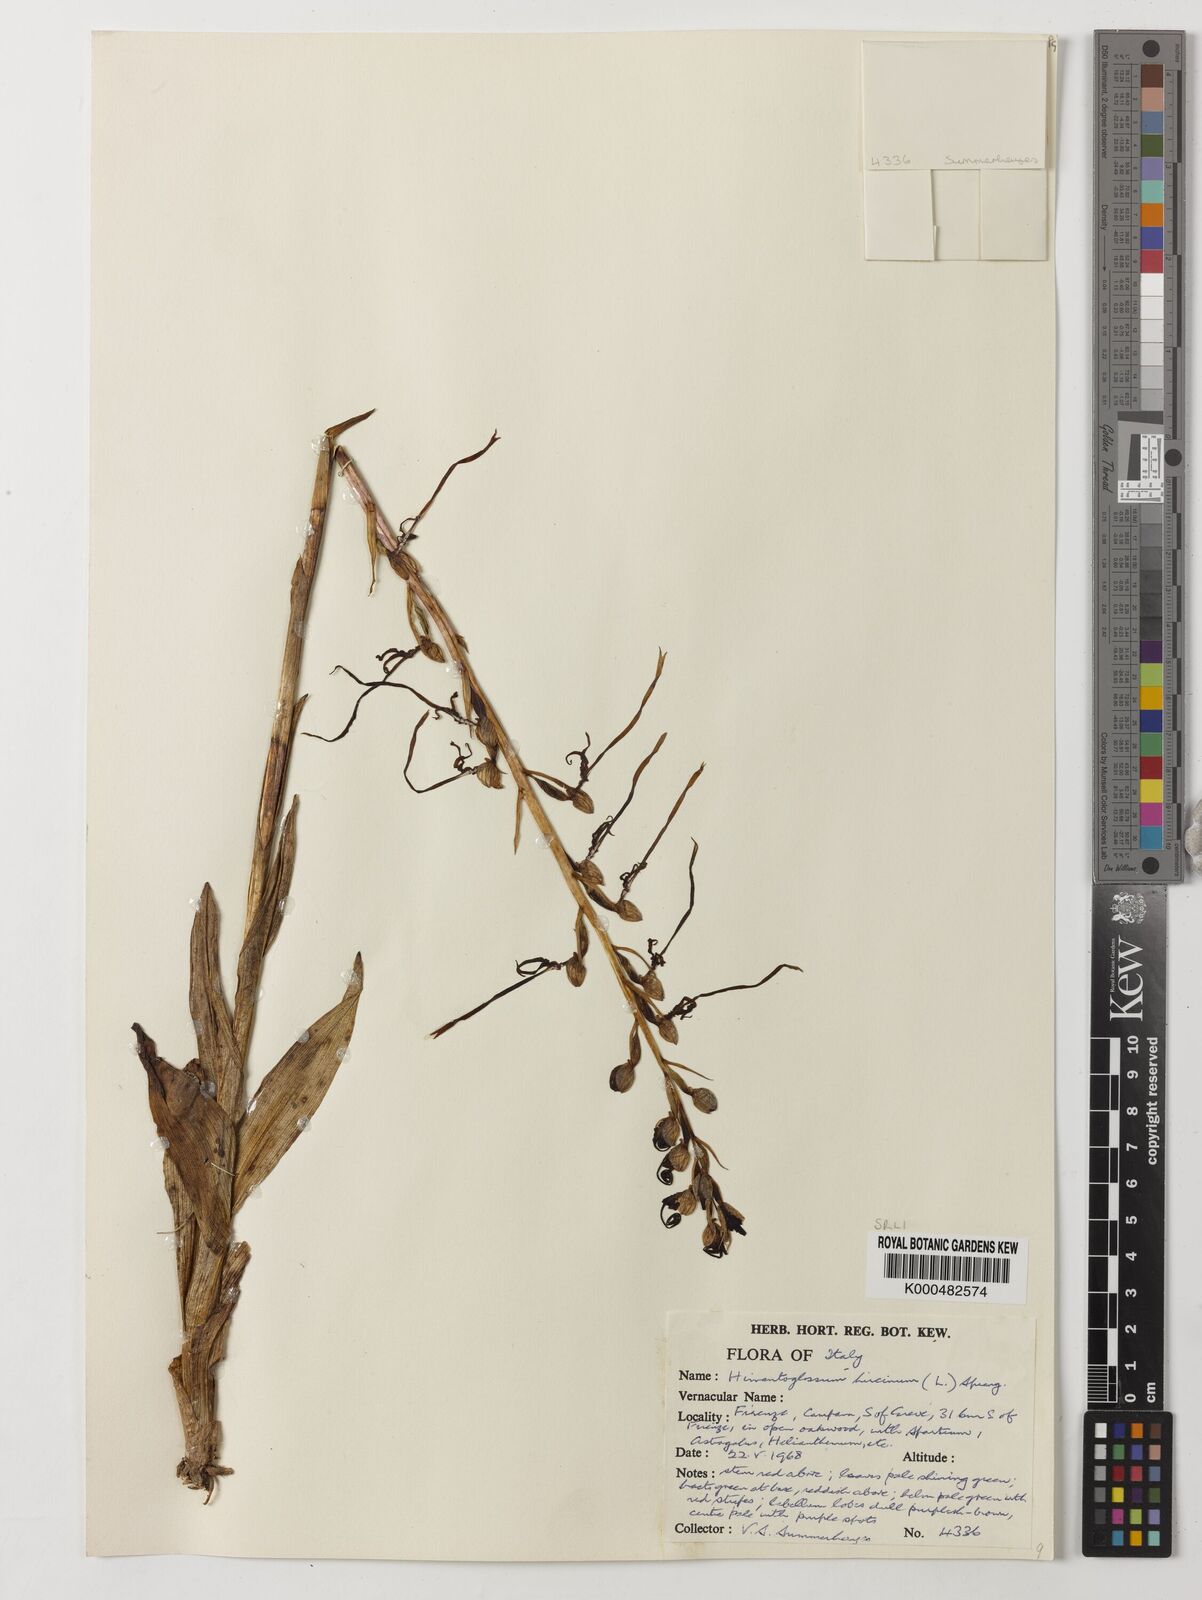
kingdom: Plantae
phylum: Tracheophyta
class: Liliopsida
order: Asparagales
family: Orchidaceae
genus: Himantoglossum
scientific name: Himantoglossum adriaticum
